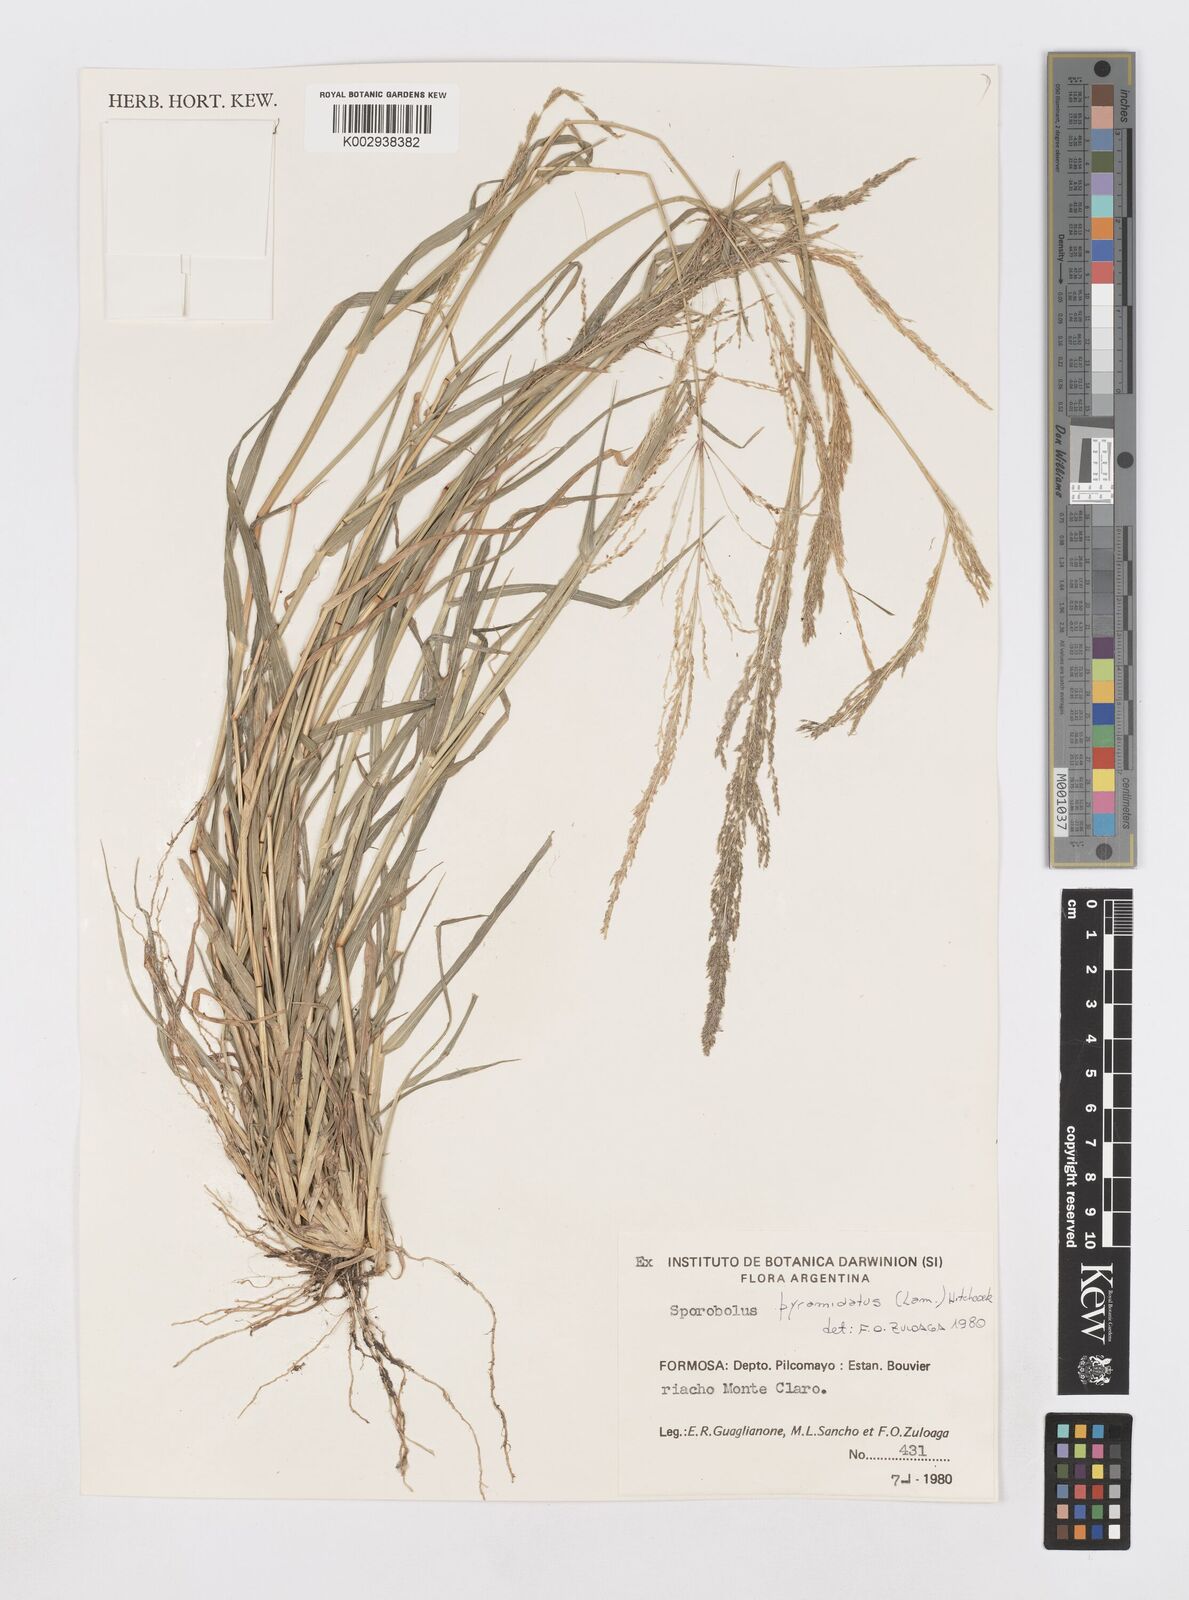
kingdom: Plantae
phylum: Tracheophyta
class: Liliopsida
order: Poales
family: Poaceae
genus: Sporobolus
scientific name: Sporobolus pyramidatus
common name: Whorled dropseed
